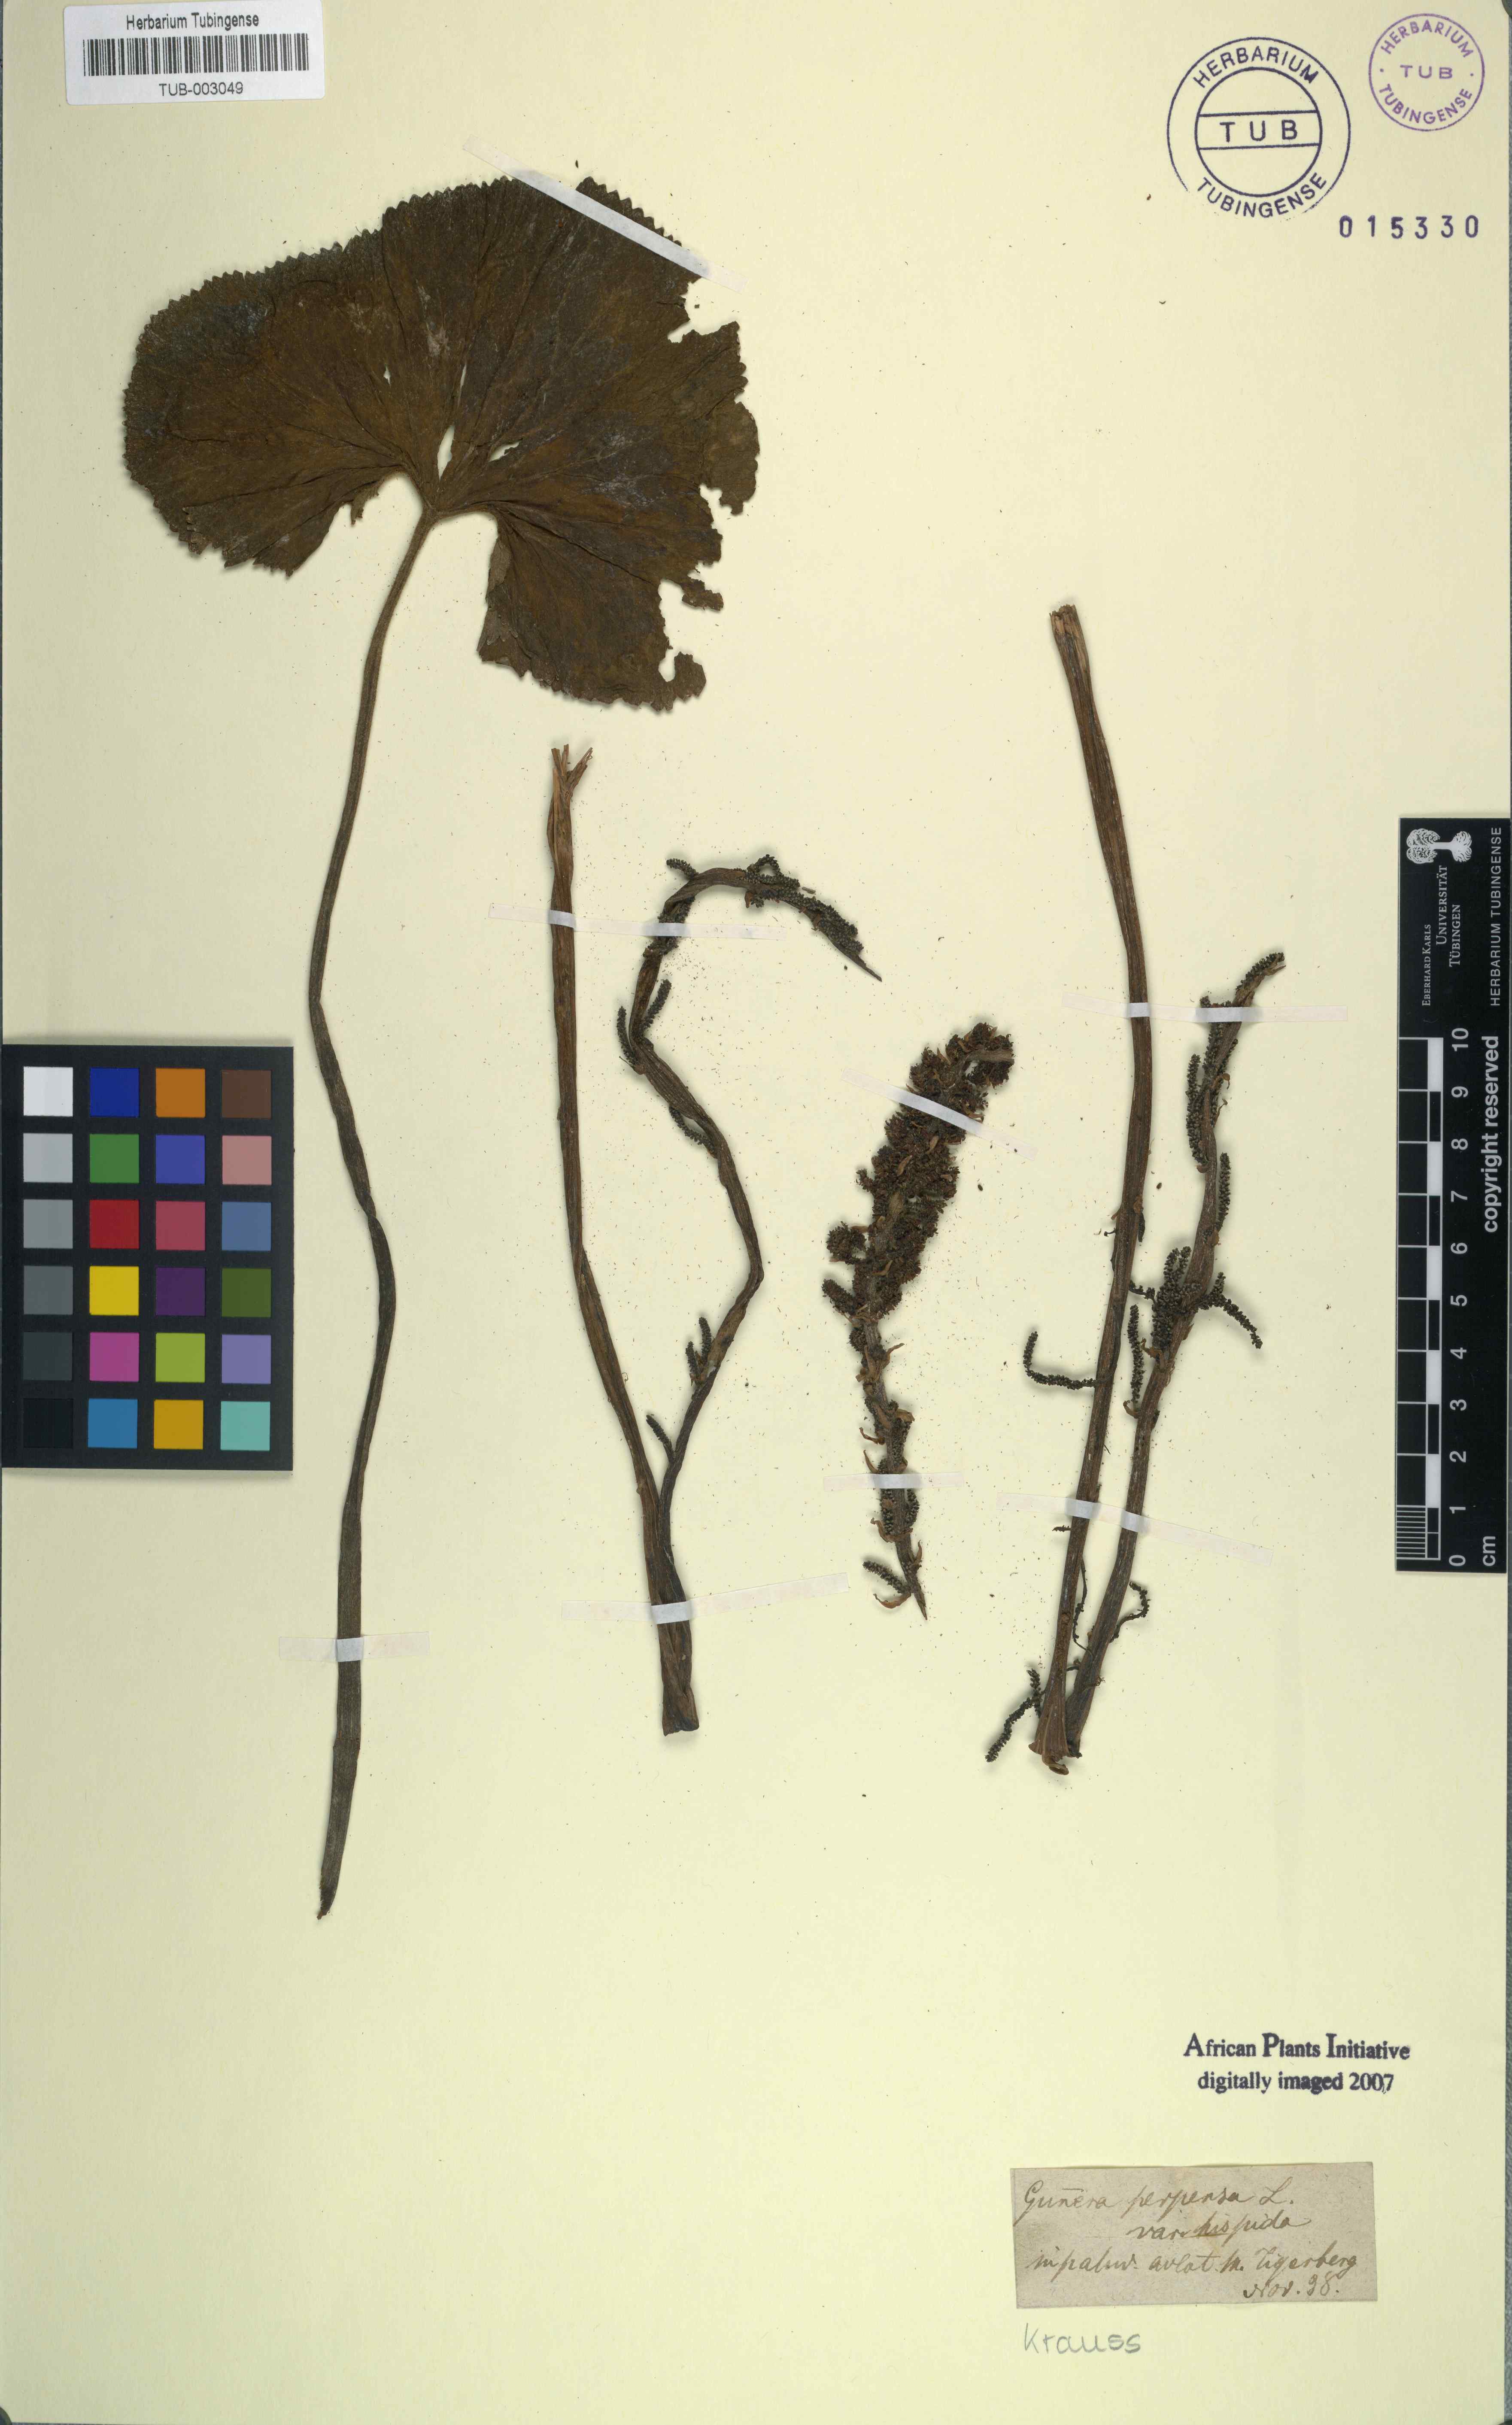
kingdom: Plantae
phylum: Tracheophyta
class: Magnoliopsida
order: Gunnerales
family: Gunneraceae
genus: Gunnera
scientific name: Gunnera perpensa
